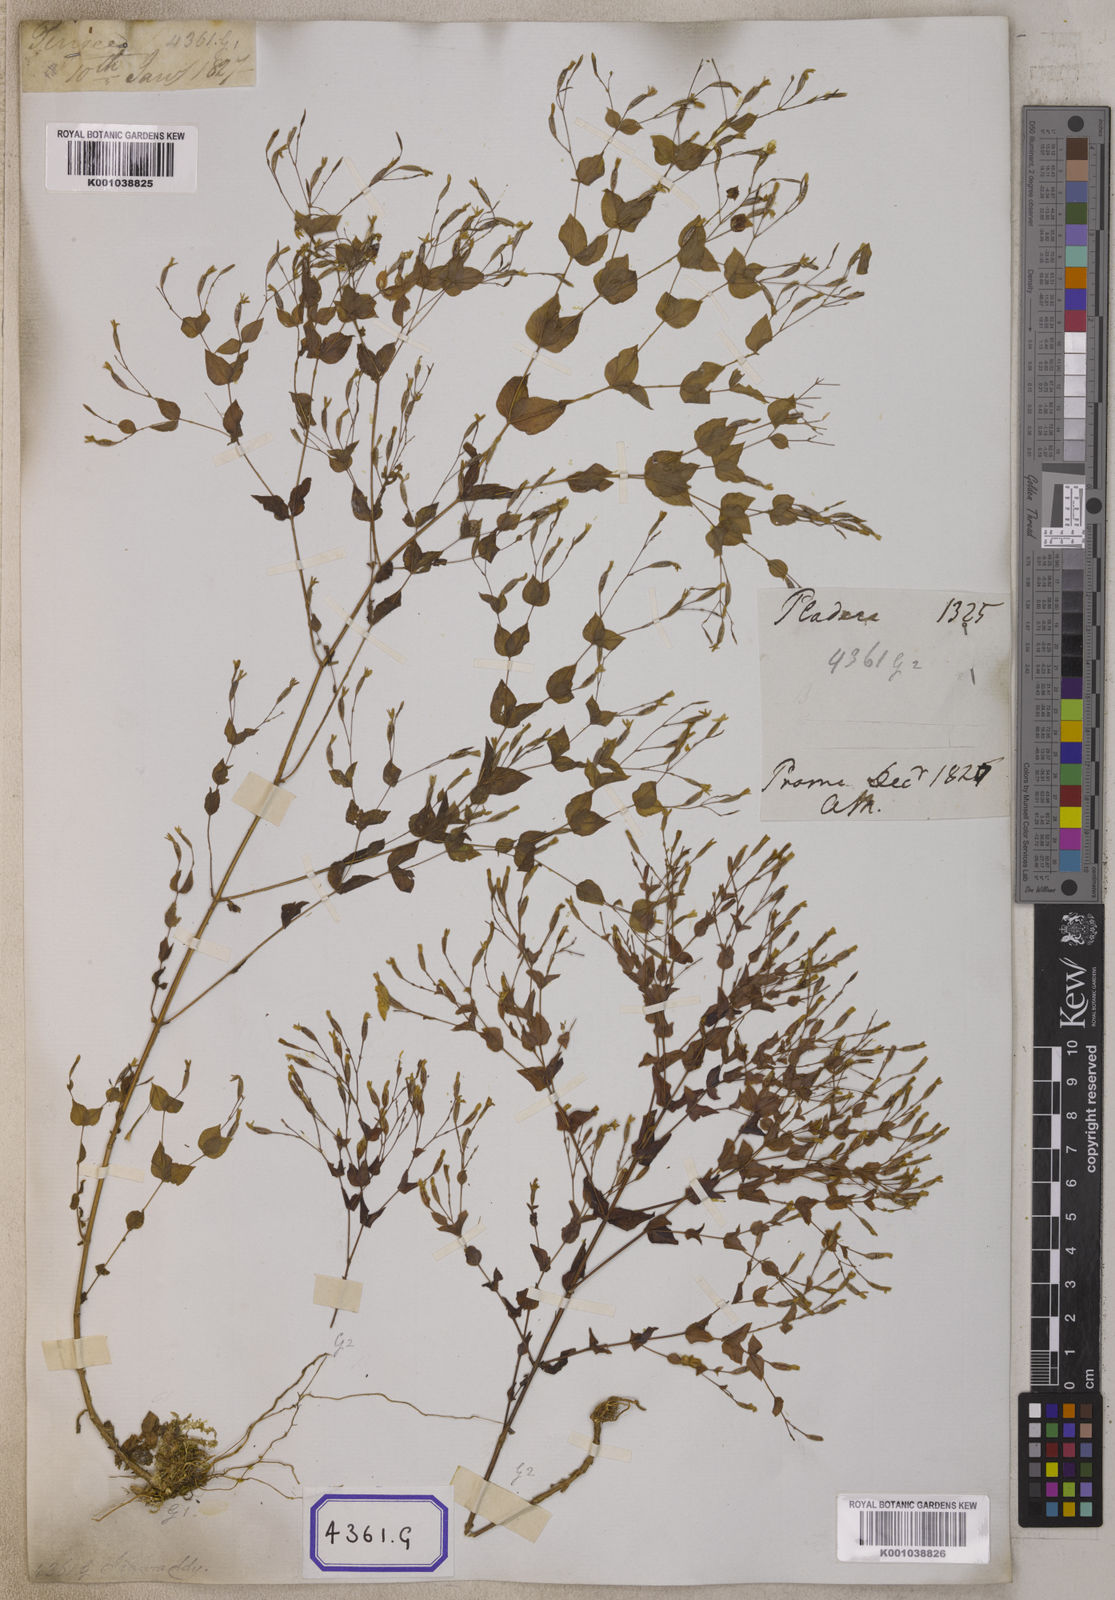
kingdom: Plantae
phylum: Tracheophyta
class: Magnoliopsida
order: Gentianales
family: Gentianaceae
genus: Canscora
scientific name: Canscora
